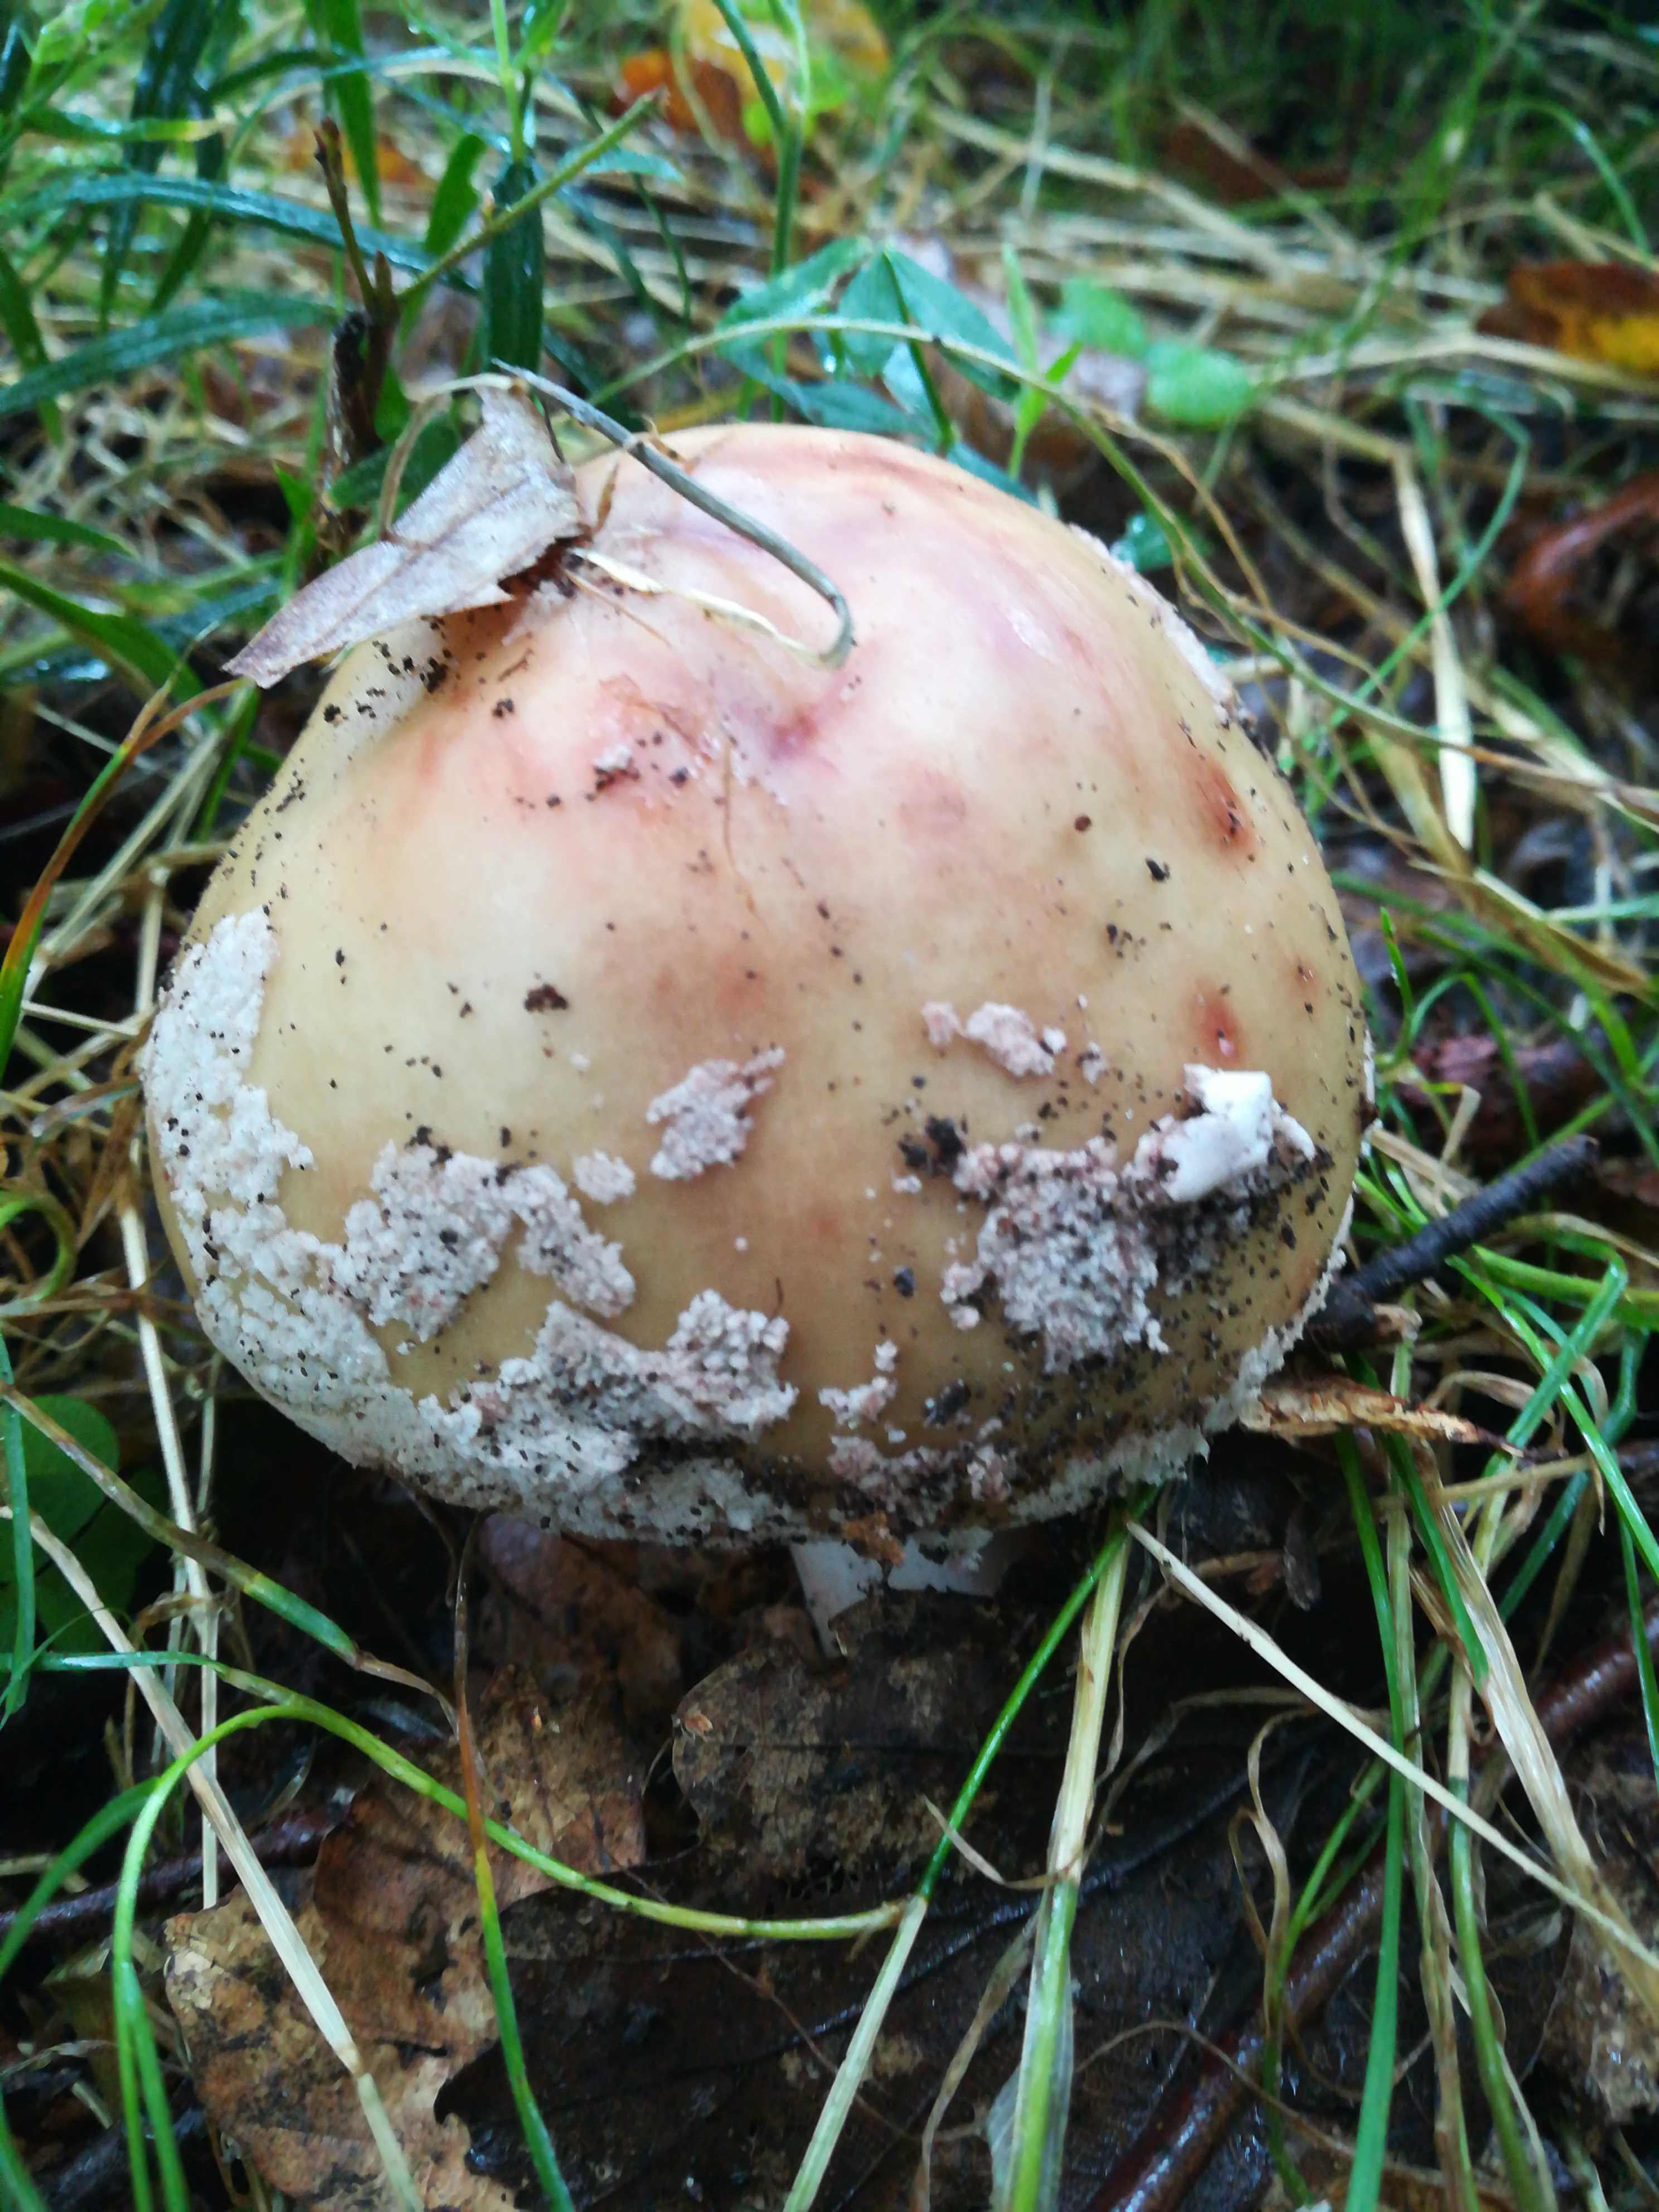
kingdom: Fungi
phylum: Basidiomycota
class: Agaricomycetes
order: Agaricales
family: Amanitaceae
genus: Amanita
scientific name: Amanita rubescens
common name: rødmende fluesvamp
